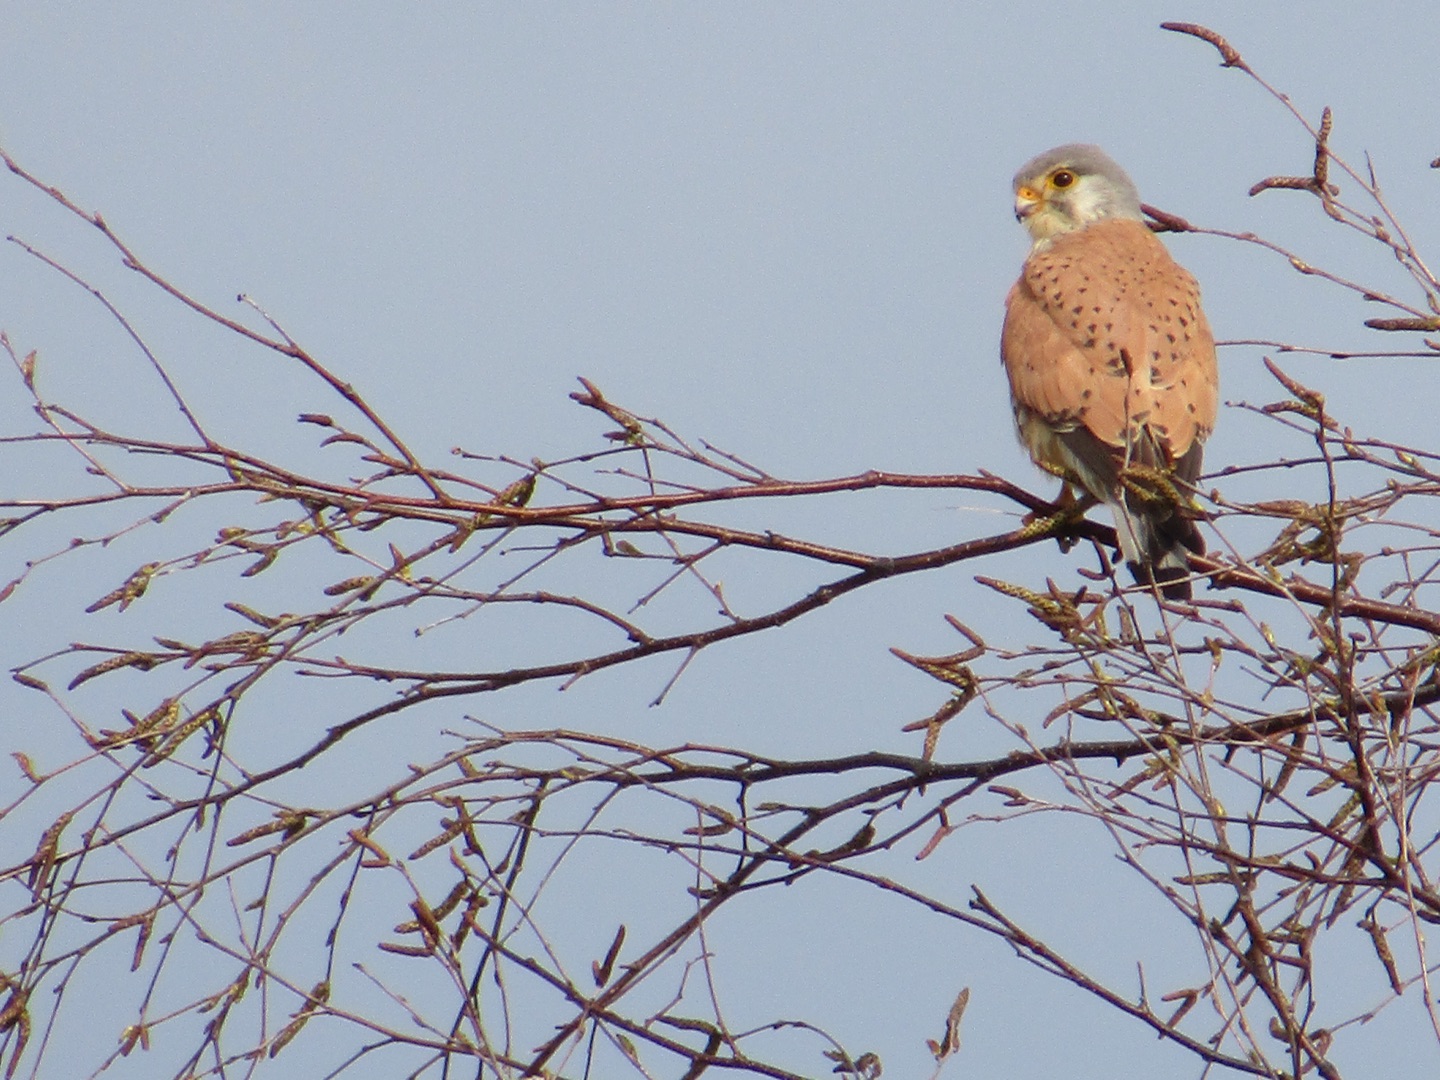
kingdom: Animalia
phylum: Chordata
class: Aves
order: Falconiformes
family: Falconidae
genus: Falco
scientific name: Falco tinnunculus
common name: Tårnfalk
